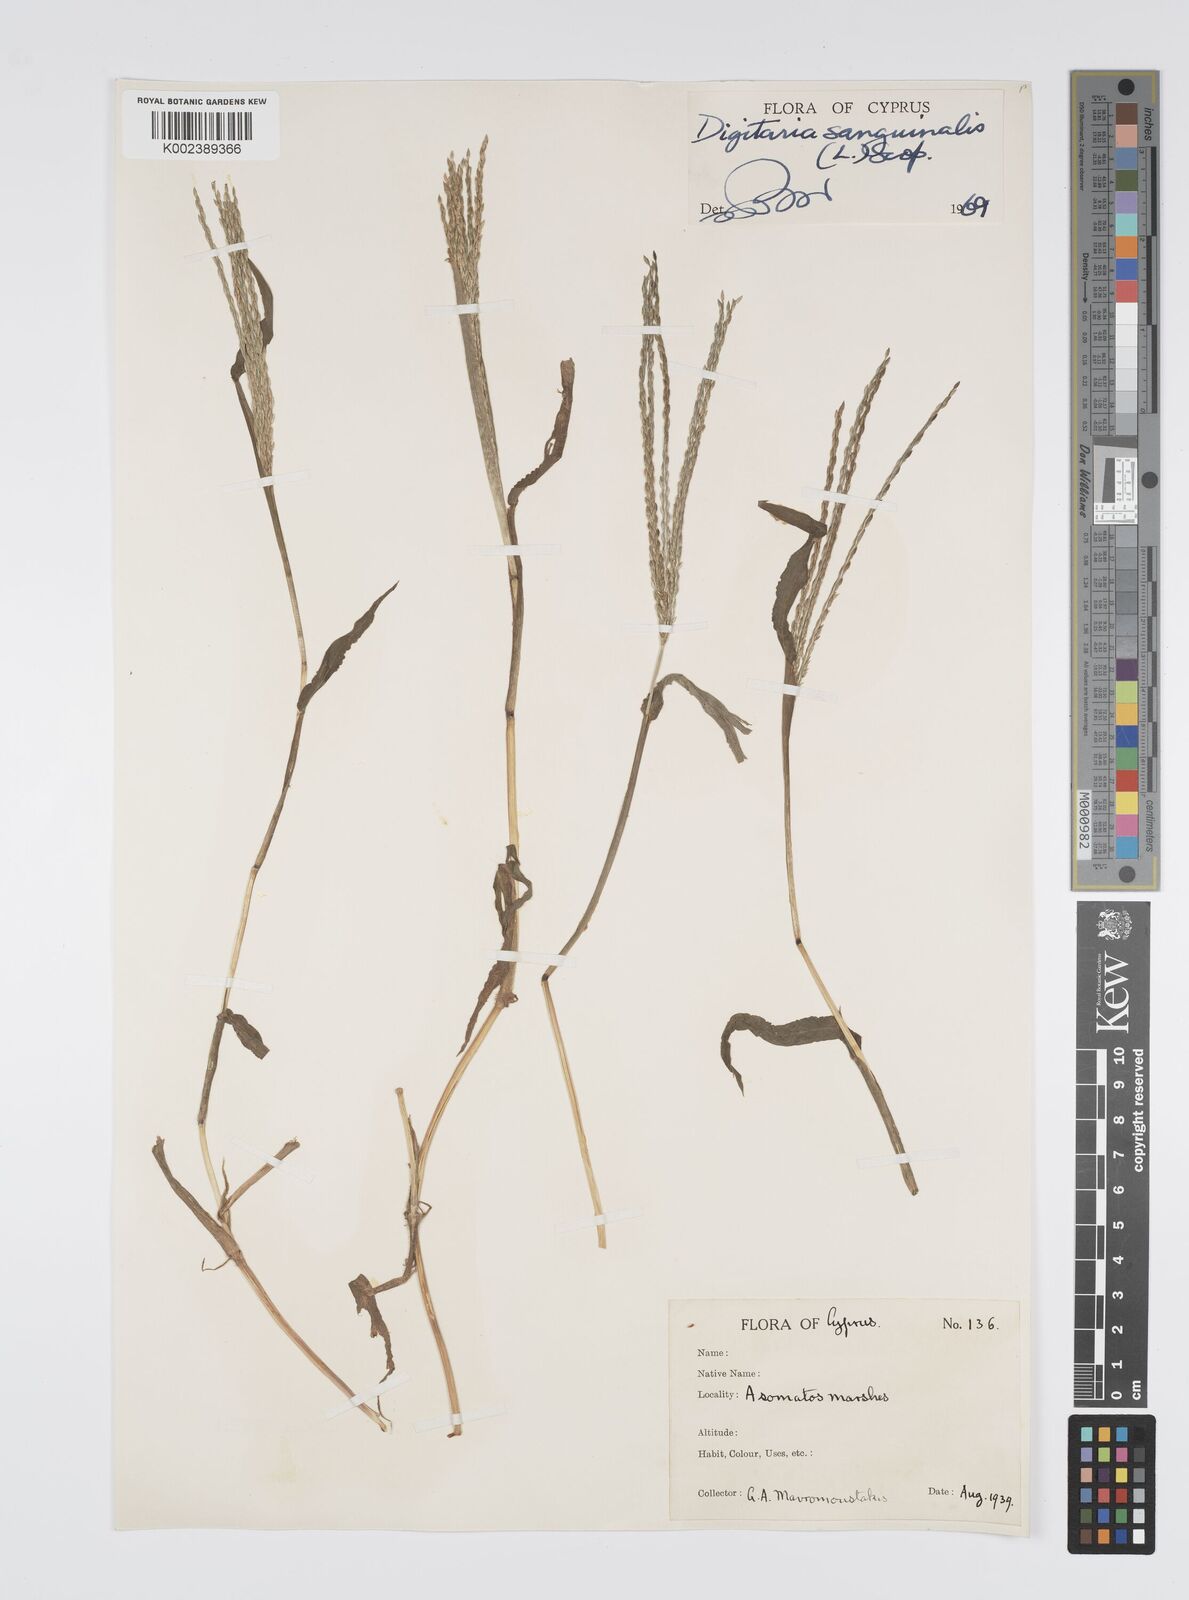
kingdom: Plantae
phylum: Tracheophyta
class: Liliopsida
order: Poales
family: Poaceae
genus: Digitaria
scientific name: Digitaria sanguinalis
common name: Hairy crabgrass
